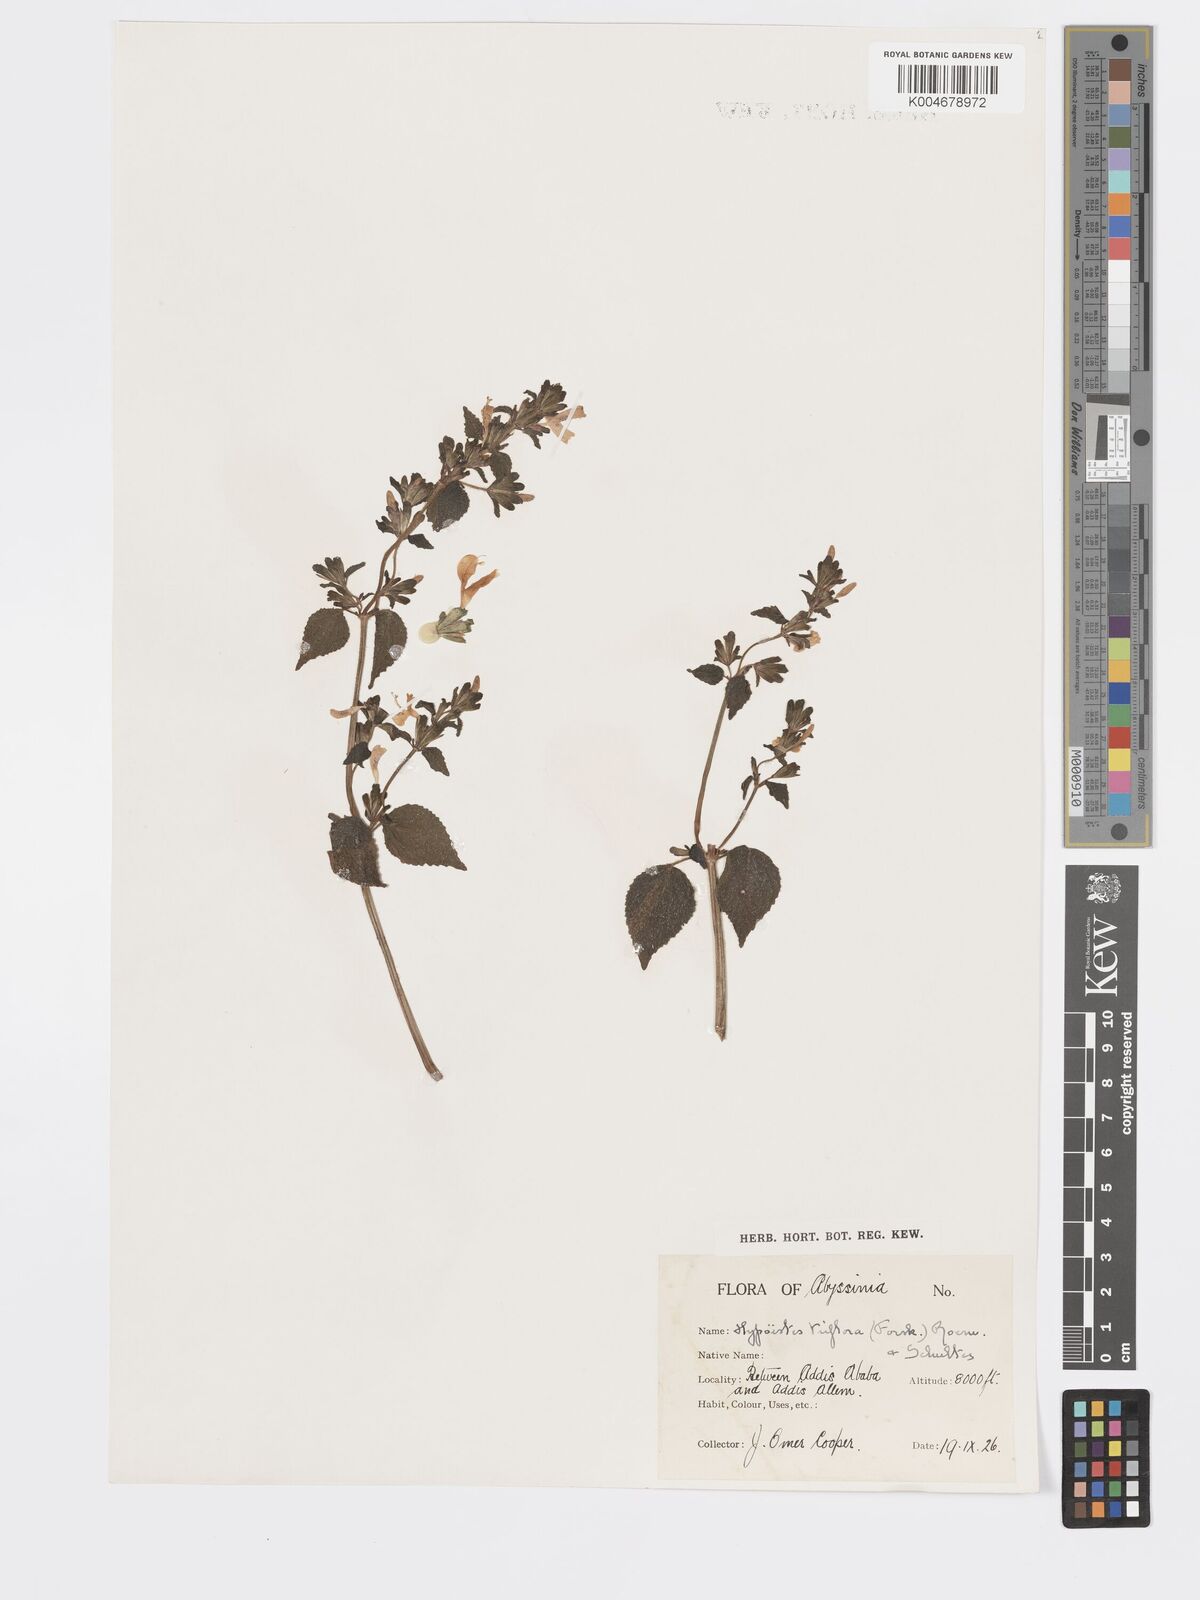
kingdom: Plantae
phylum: Tracheophyta
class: Magnoliopsida
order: Lamiales
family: Acanthaceae
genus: Hypoestes
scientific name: Hypoestes triflora
